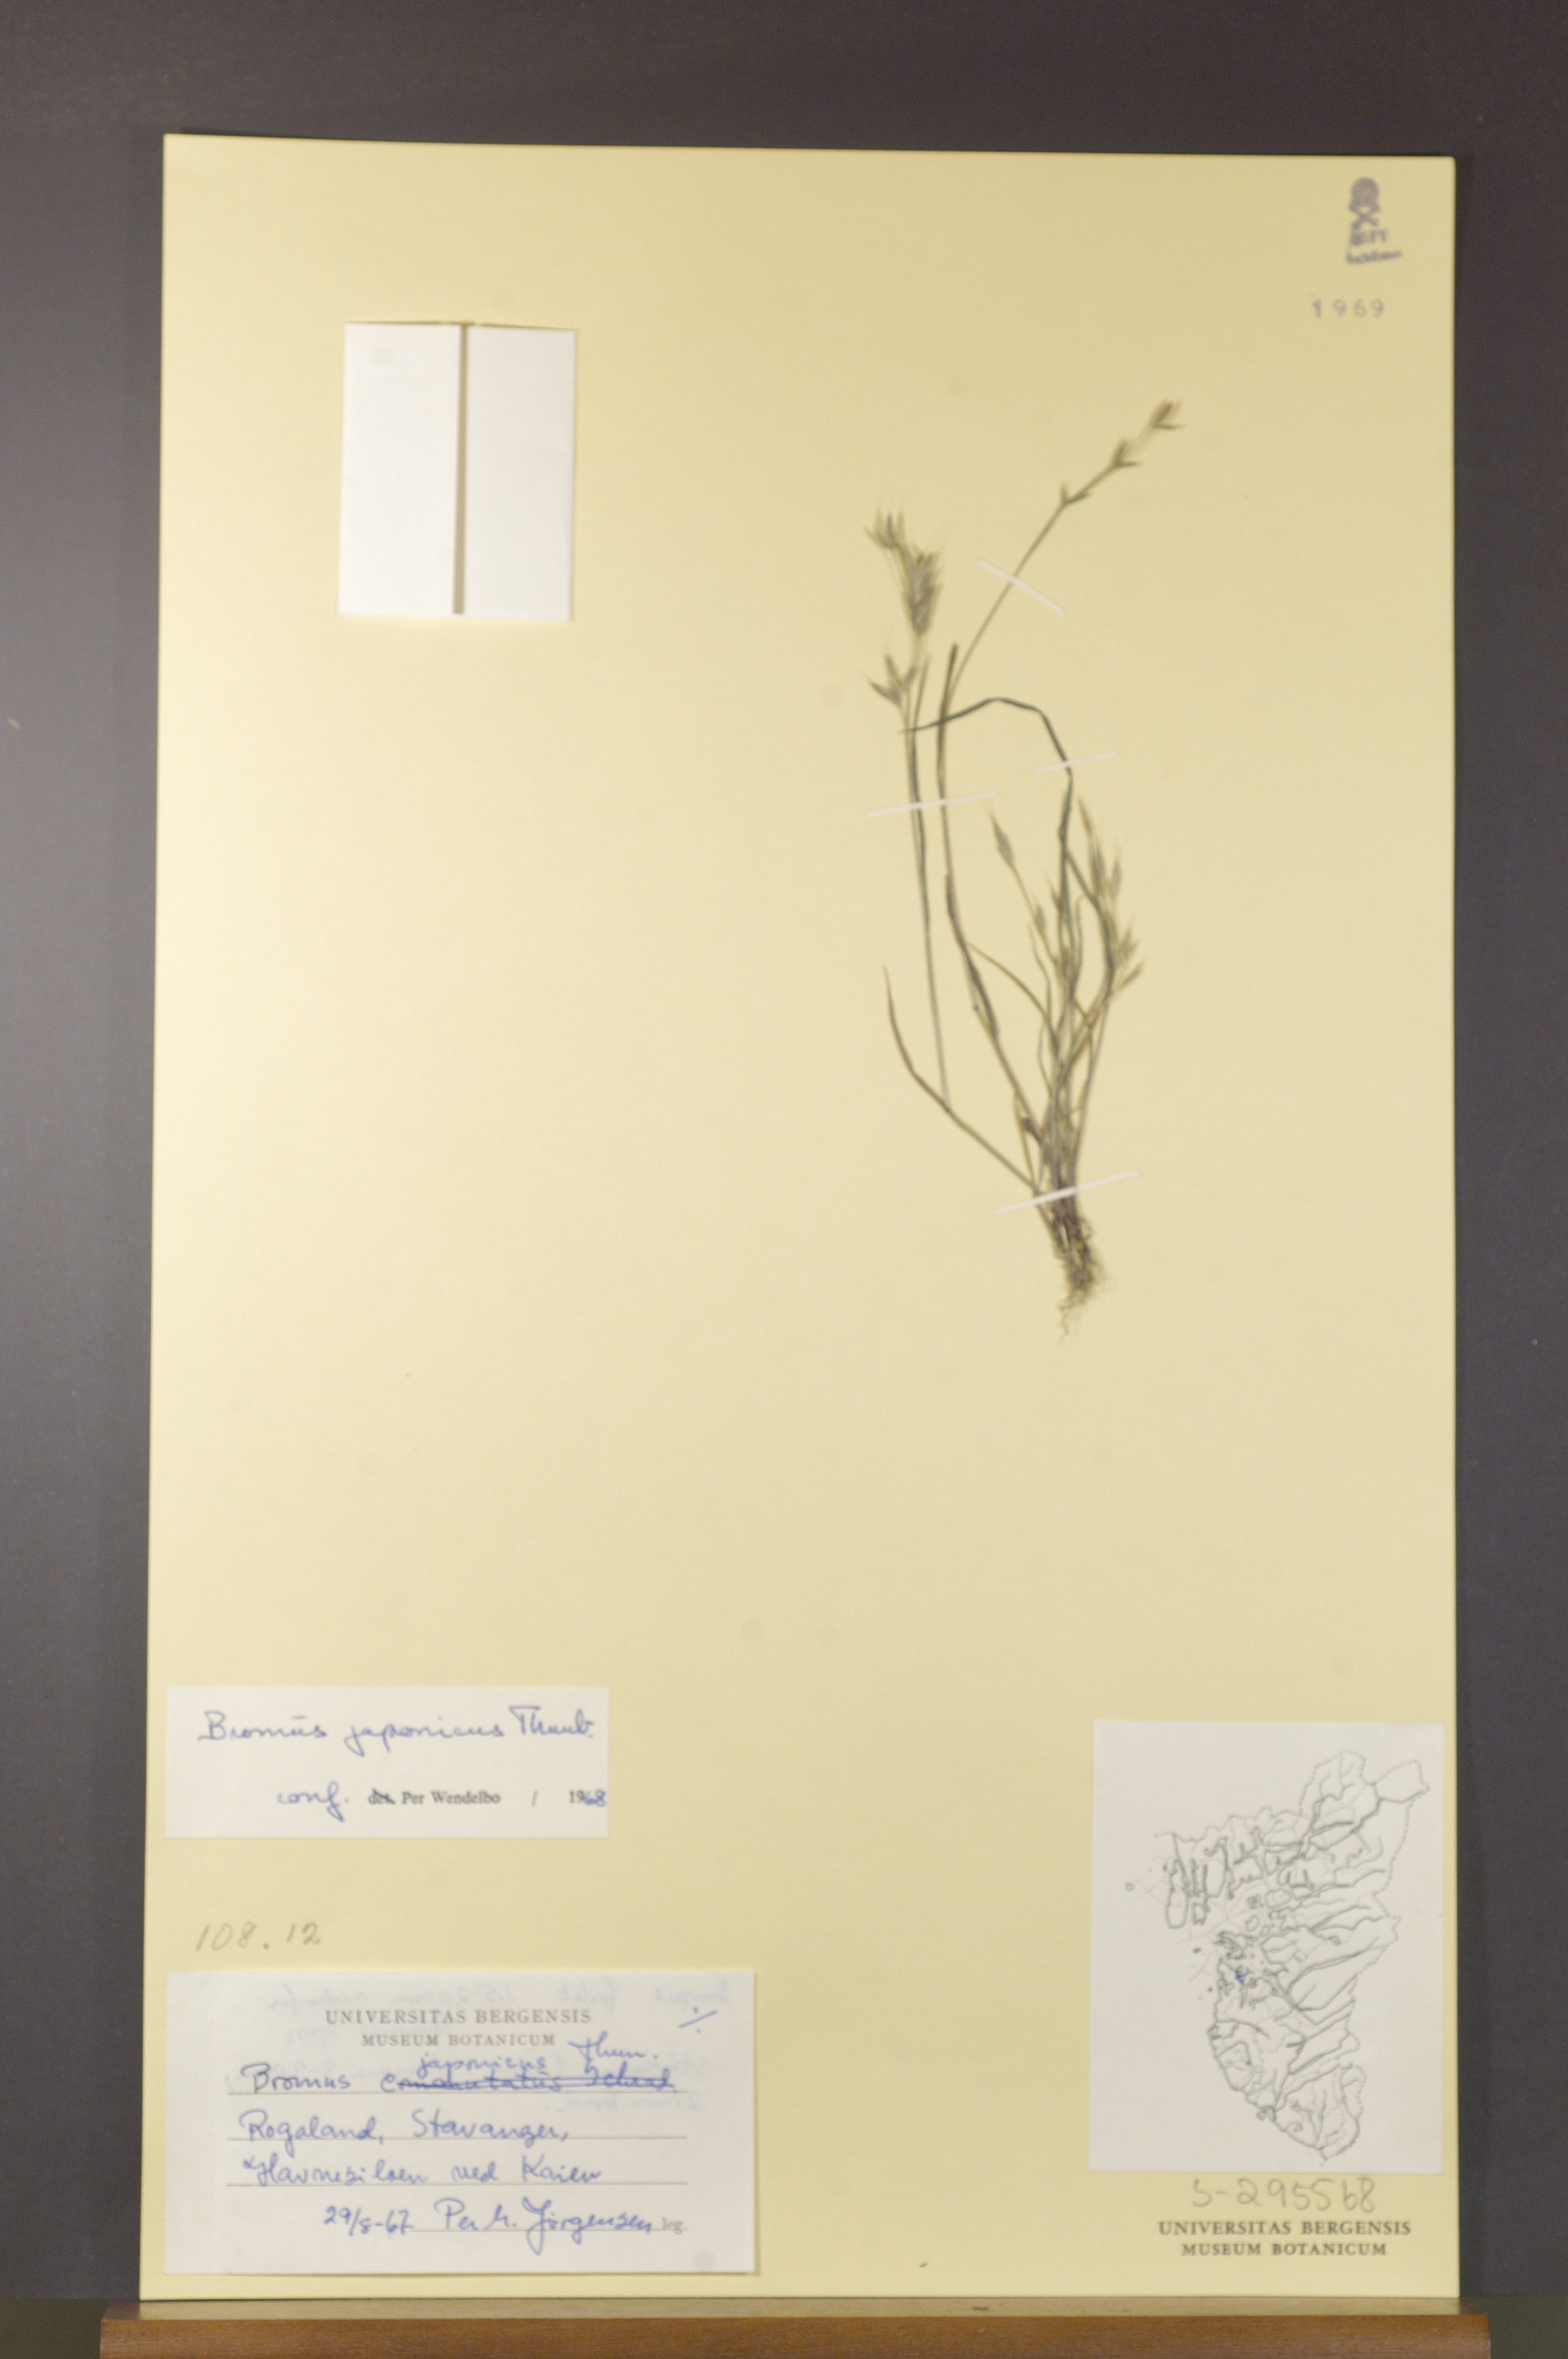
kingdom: Plantae
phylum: Tracheophyta
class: Liliopsida
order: Poales
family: Poaceae
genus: Bromus
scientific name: Bromus japonicus
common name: Japanese brome
